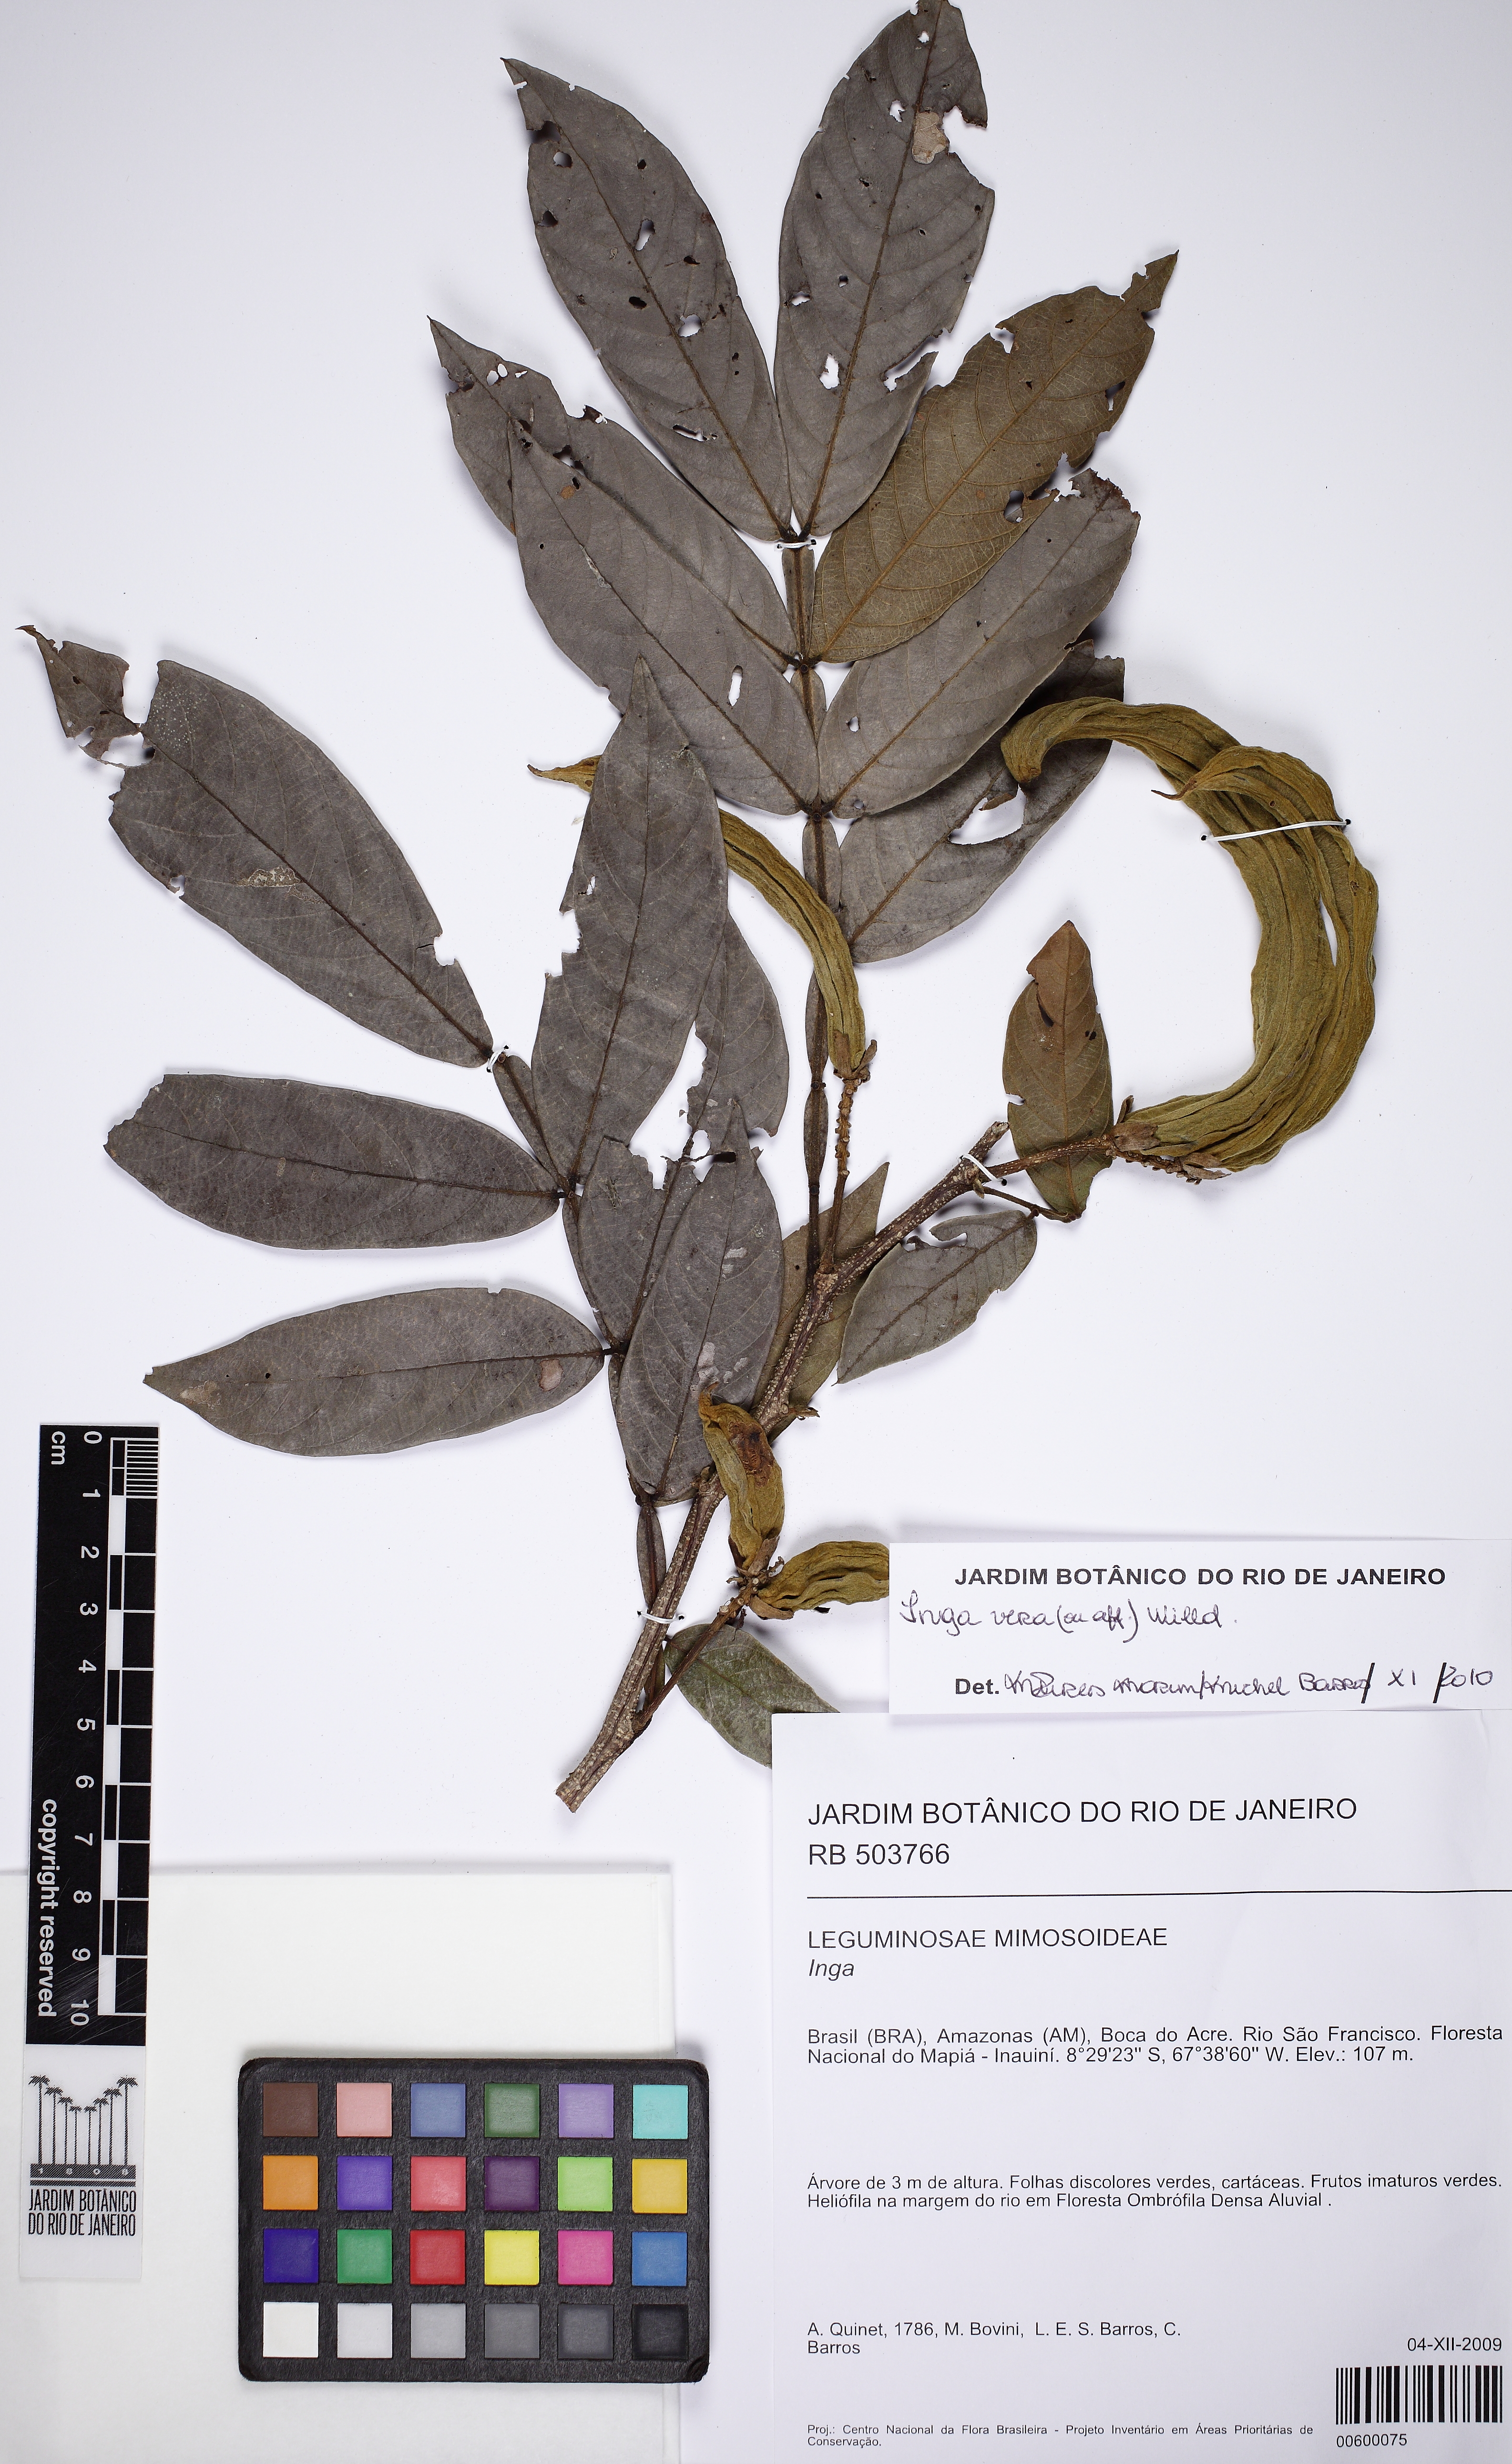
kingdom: Plantae
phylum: Tracheophyta
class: Magnoliopsida
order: Fabales
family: Fabaceae
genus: Inga
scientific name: Inga vera
